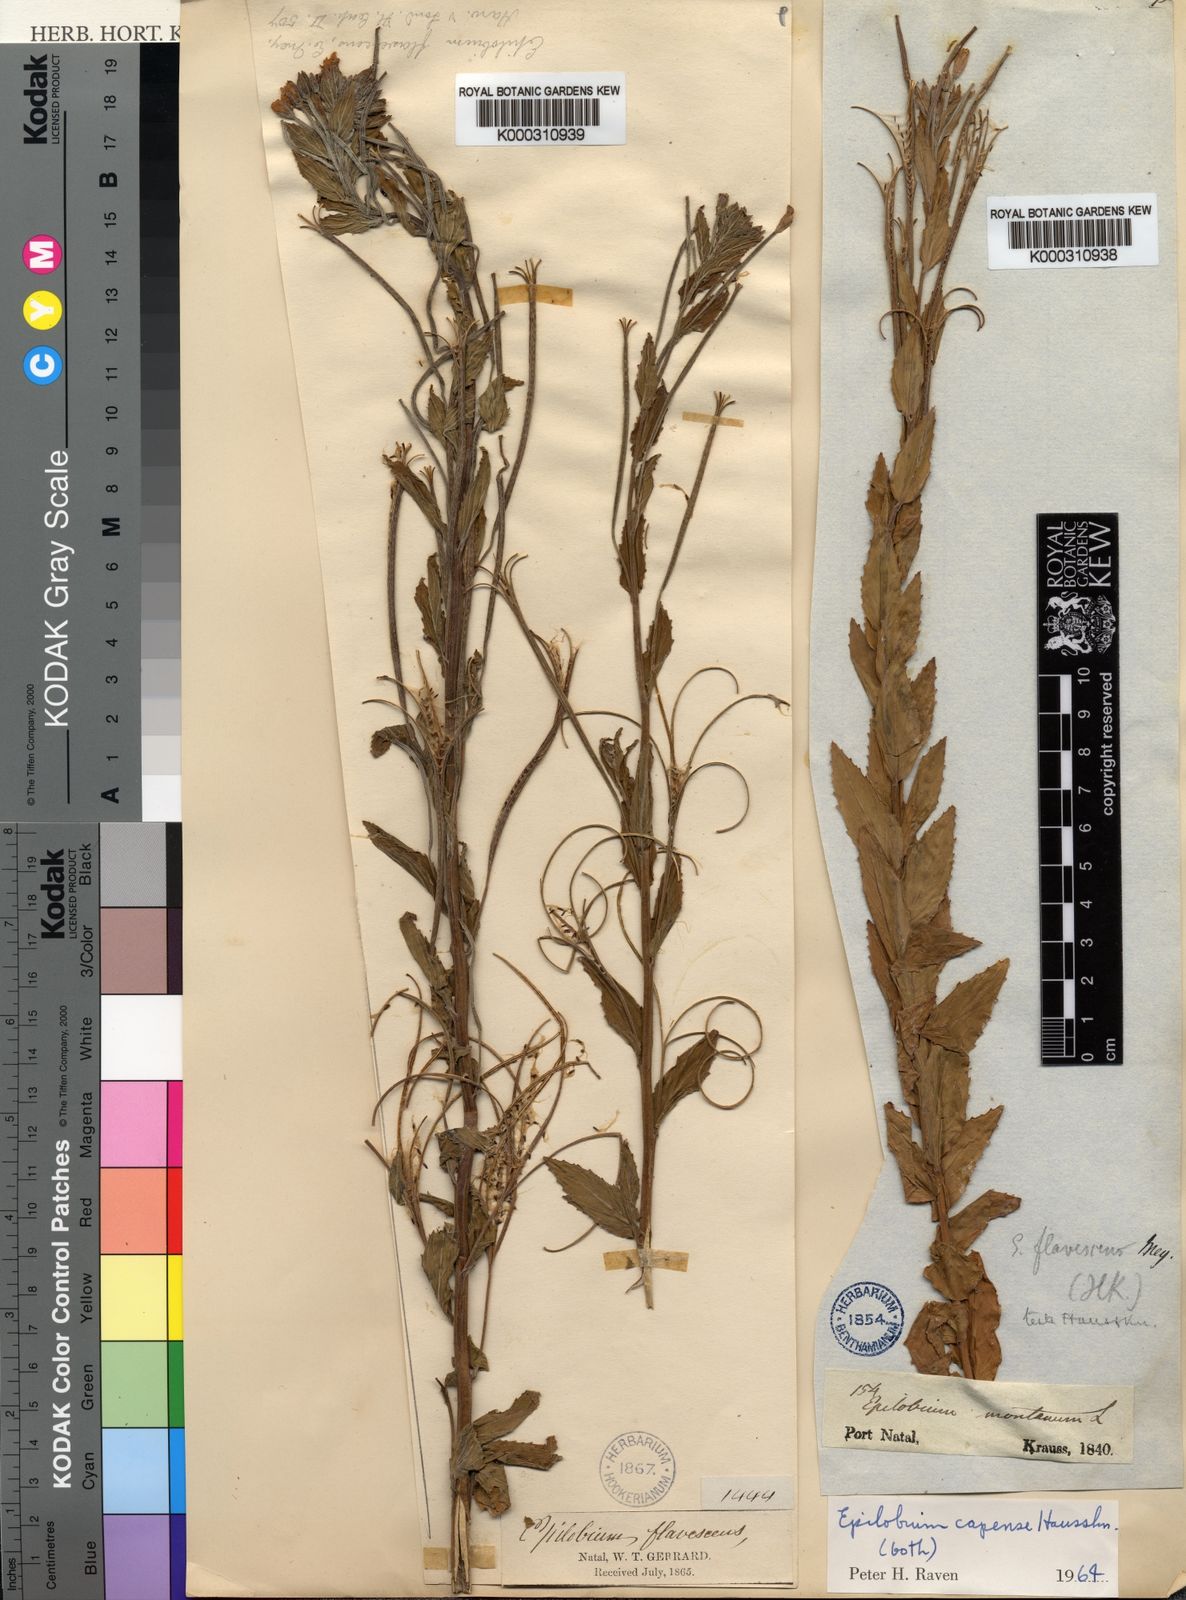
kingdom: Plantae
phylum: Tracheophyta
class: Magnoliopsida
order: Myrtales
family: Onagraceae
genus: Epilobium
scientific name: Epilobium
